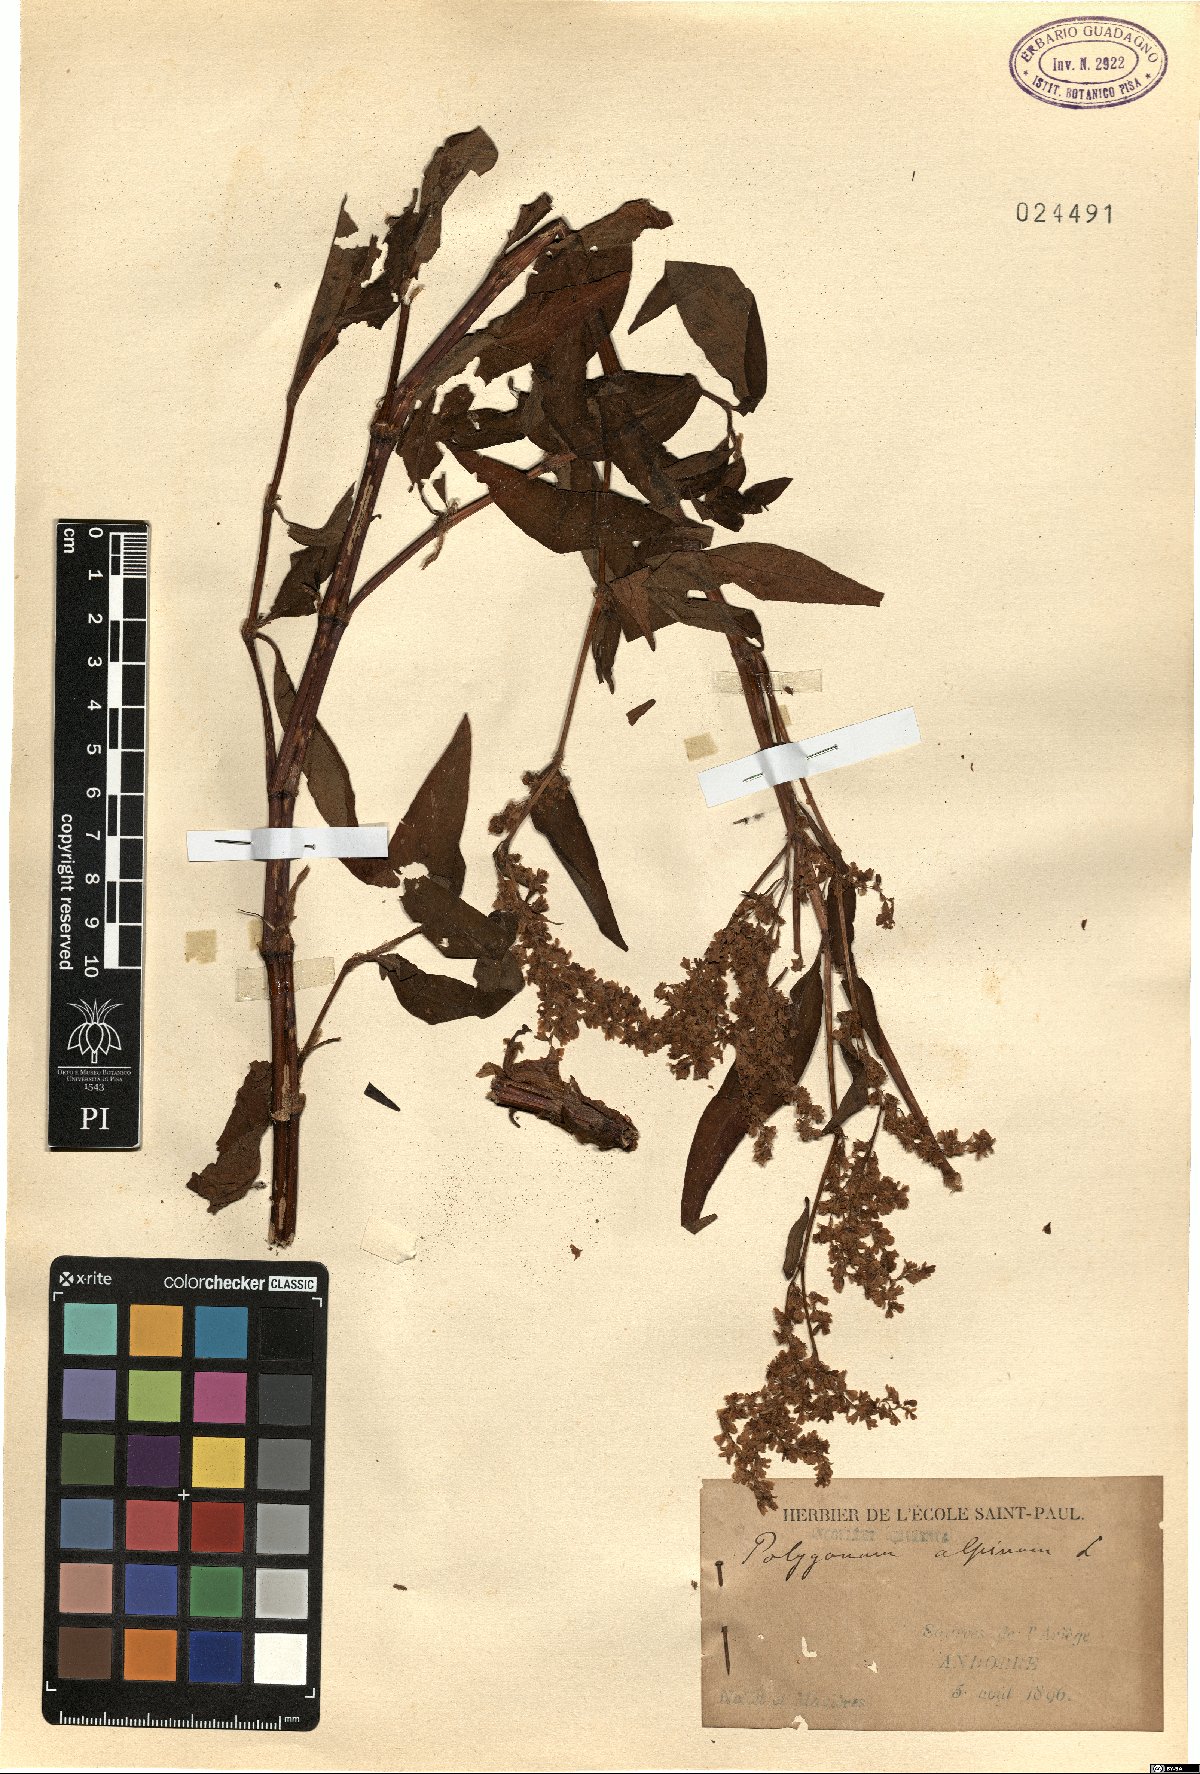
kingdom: Plantae
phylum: Tracheophyta
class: Magnoliopsida
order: Caryophyllales
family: Polygonaceae
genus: Koenigia
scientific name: Koenigia alpina
